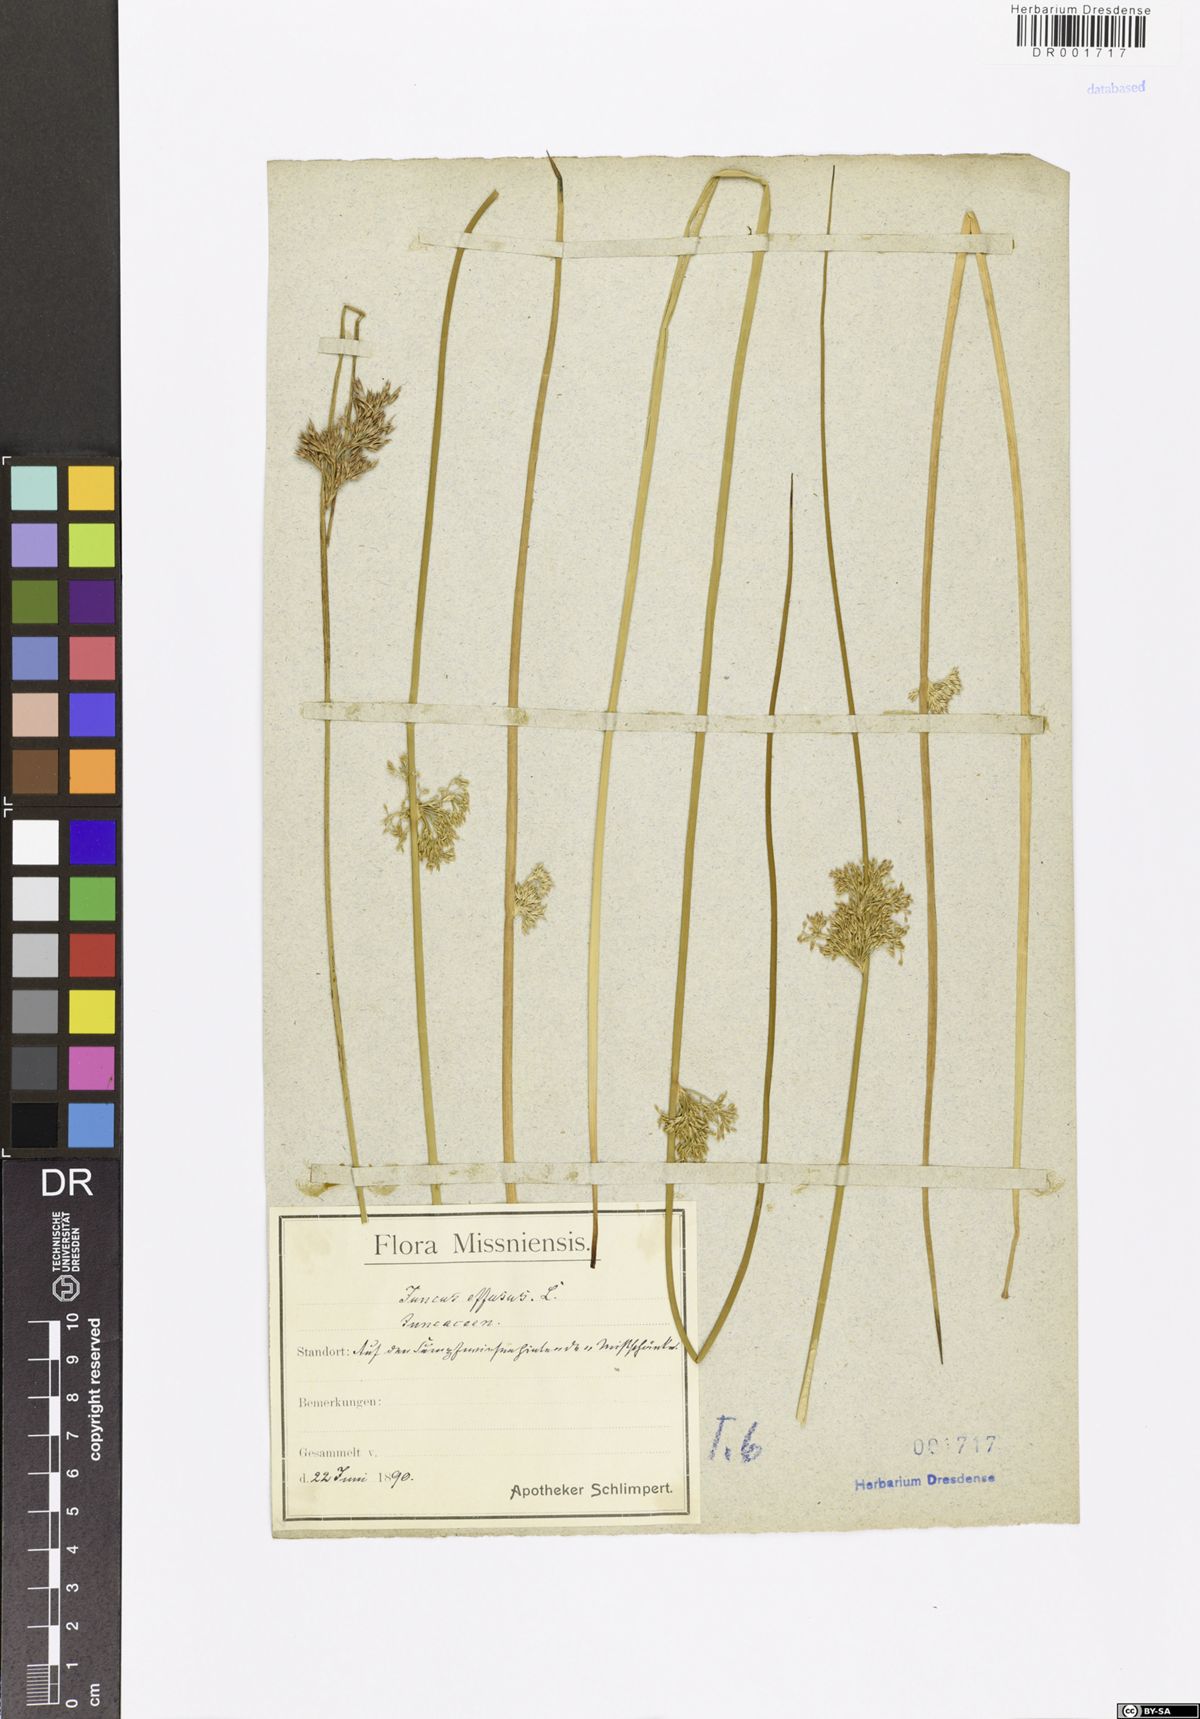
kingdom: Plantae
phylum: Tracheophyta
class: Liliopsida
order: Poales
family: Juncaceae
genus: Juncus
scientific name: Juncus effusus
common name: Soft rush
